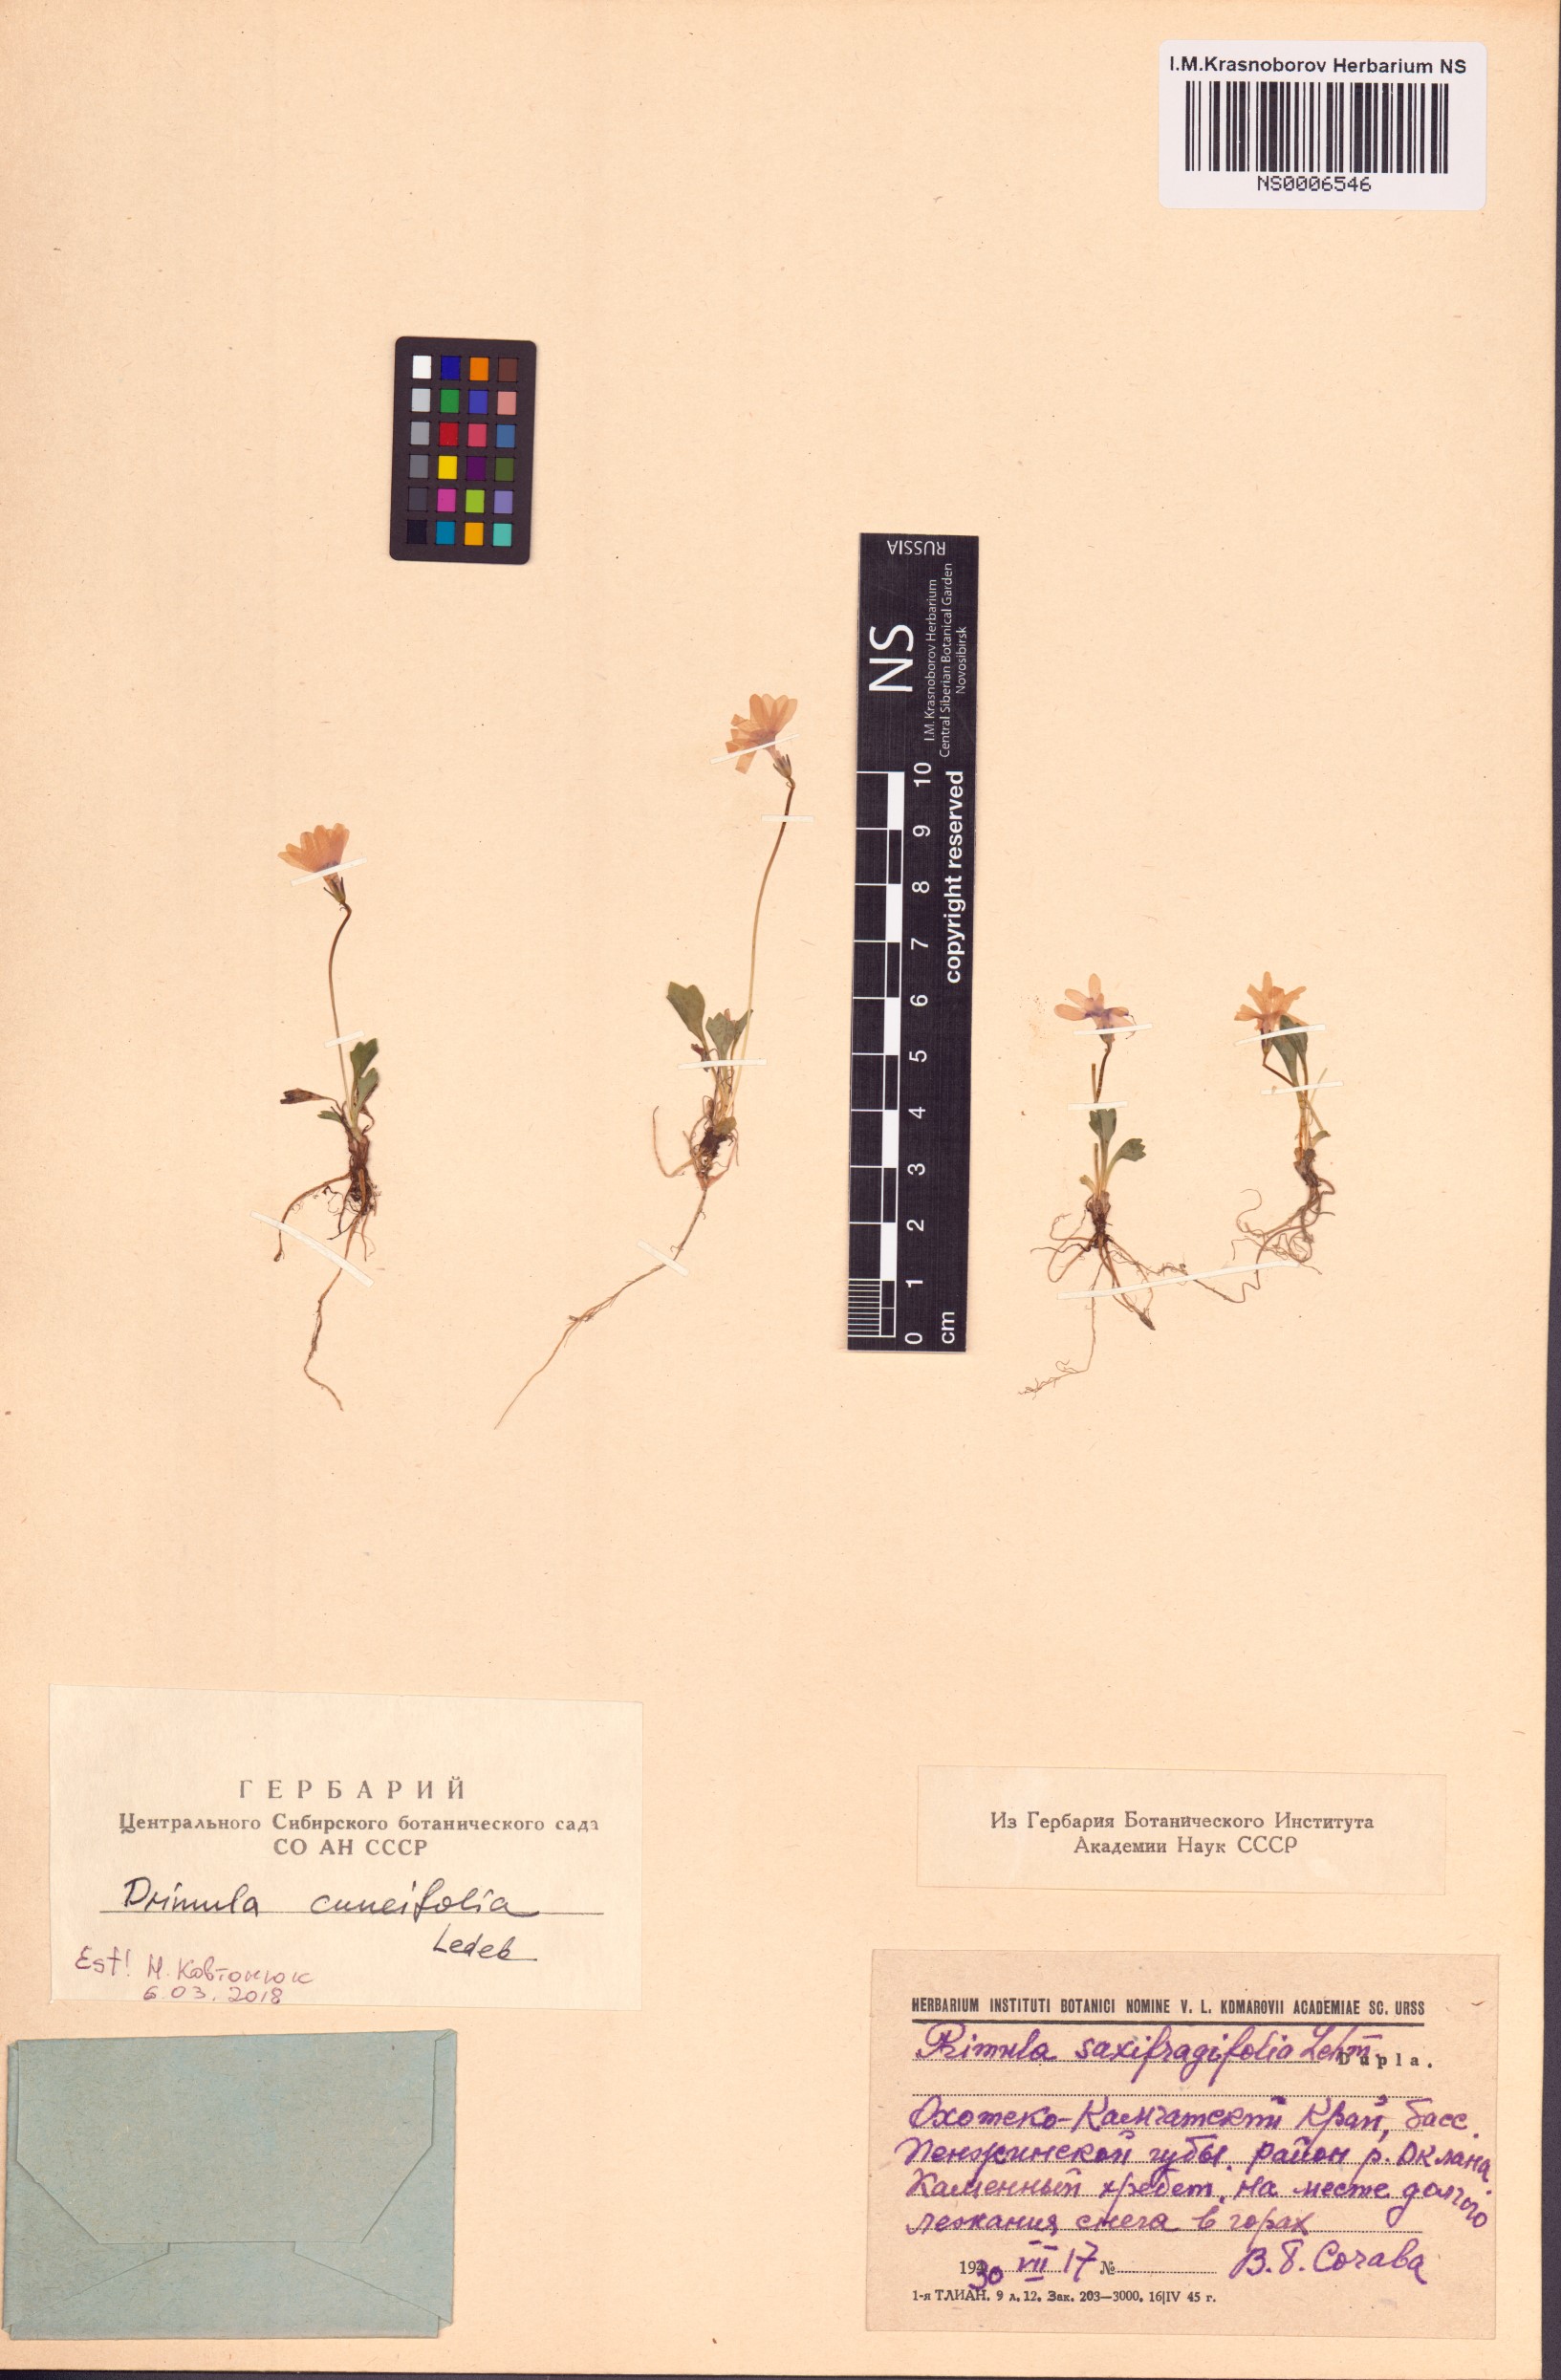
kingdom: Plantae
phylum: Tracheophyta
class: Magnoliopsida
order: Ericales
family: Primulaceae
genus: Primula
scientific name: Primula cuneifolia
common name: Wedge-leaved primrose
